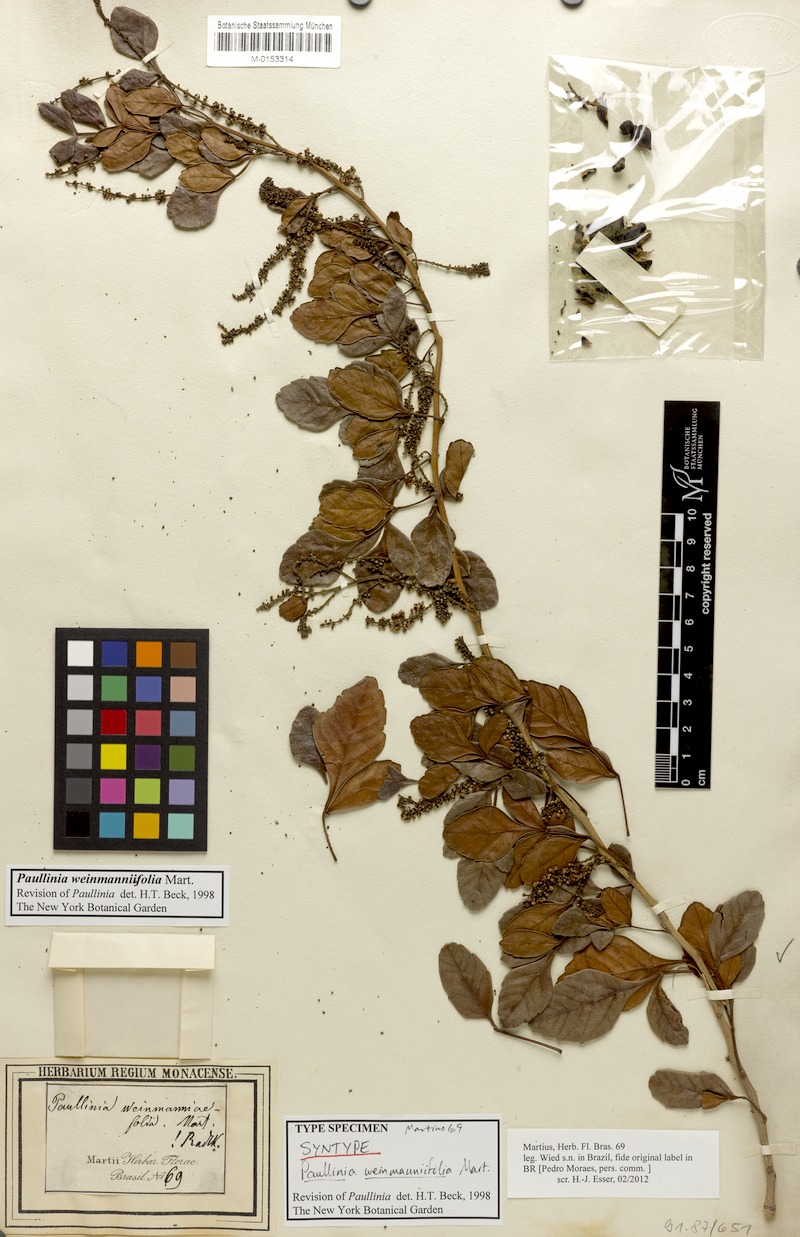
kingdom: Plantae
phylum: Tracheophyta
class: Magnoliopsida
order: Sapindales
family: Sapindaceae
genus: Paullinia
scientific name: Paullinia weinmanniifolia
